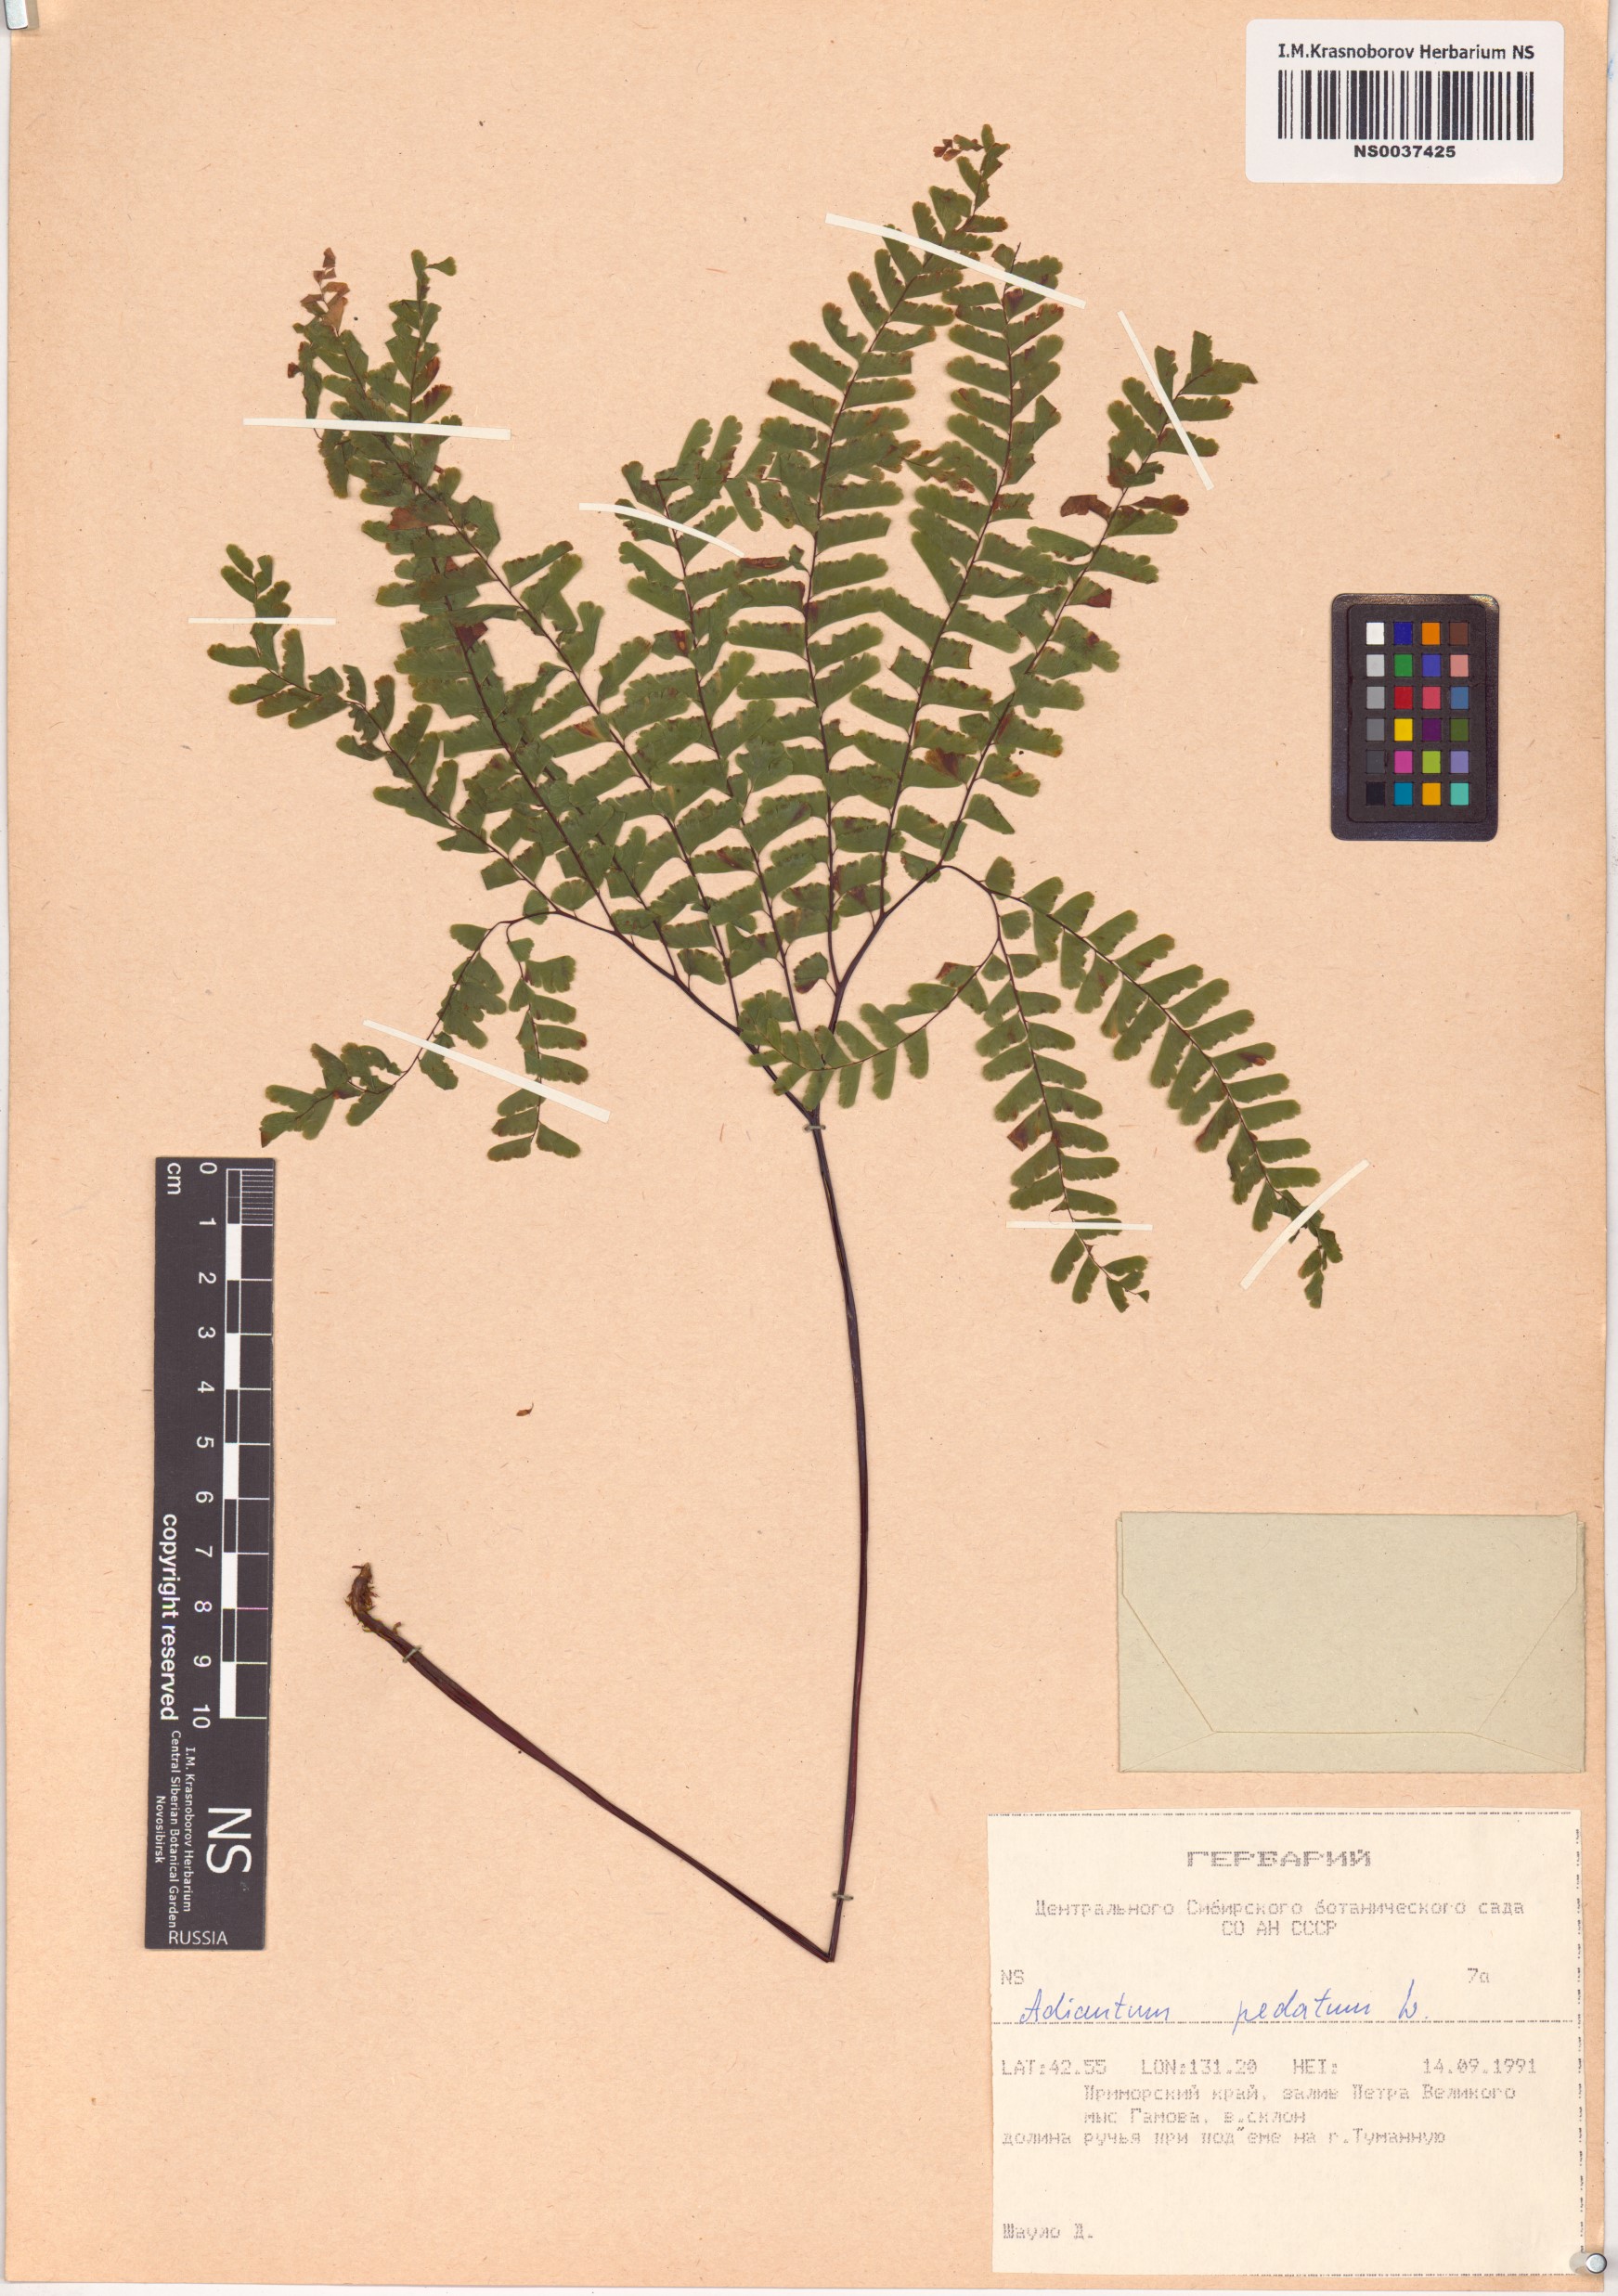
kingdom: Plantae
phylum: Tracheophyta
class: Polypodiopsida
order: Polypodiales
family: Pteridaceae
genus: Adiantum
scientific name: Adiantum pedatum
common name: Five-finger fern
